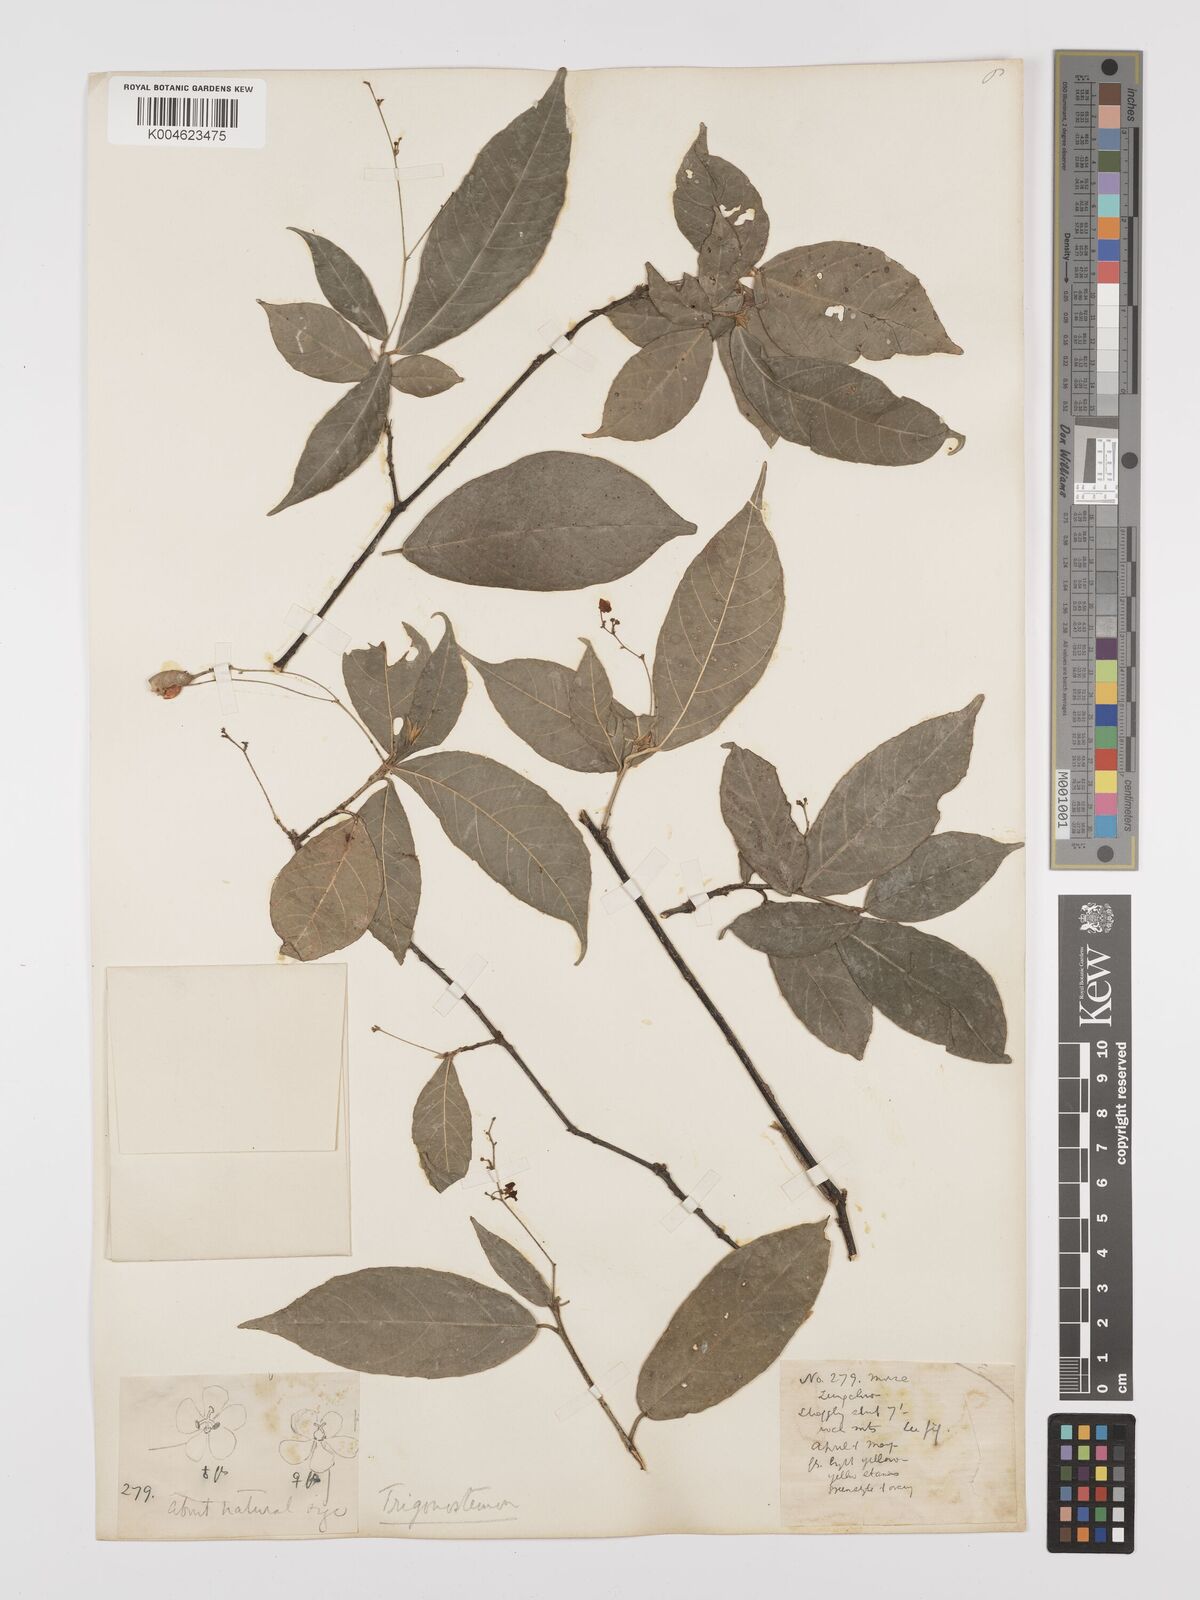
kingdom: Plantae
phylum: Tracheophyta
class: Magnoliopsida
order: Malpighiales
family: Euphorbiaceae
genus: Trigonostemon
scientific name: Trigonostemon viridissimus
